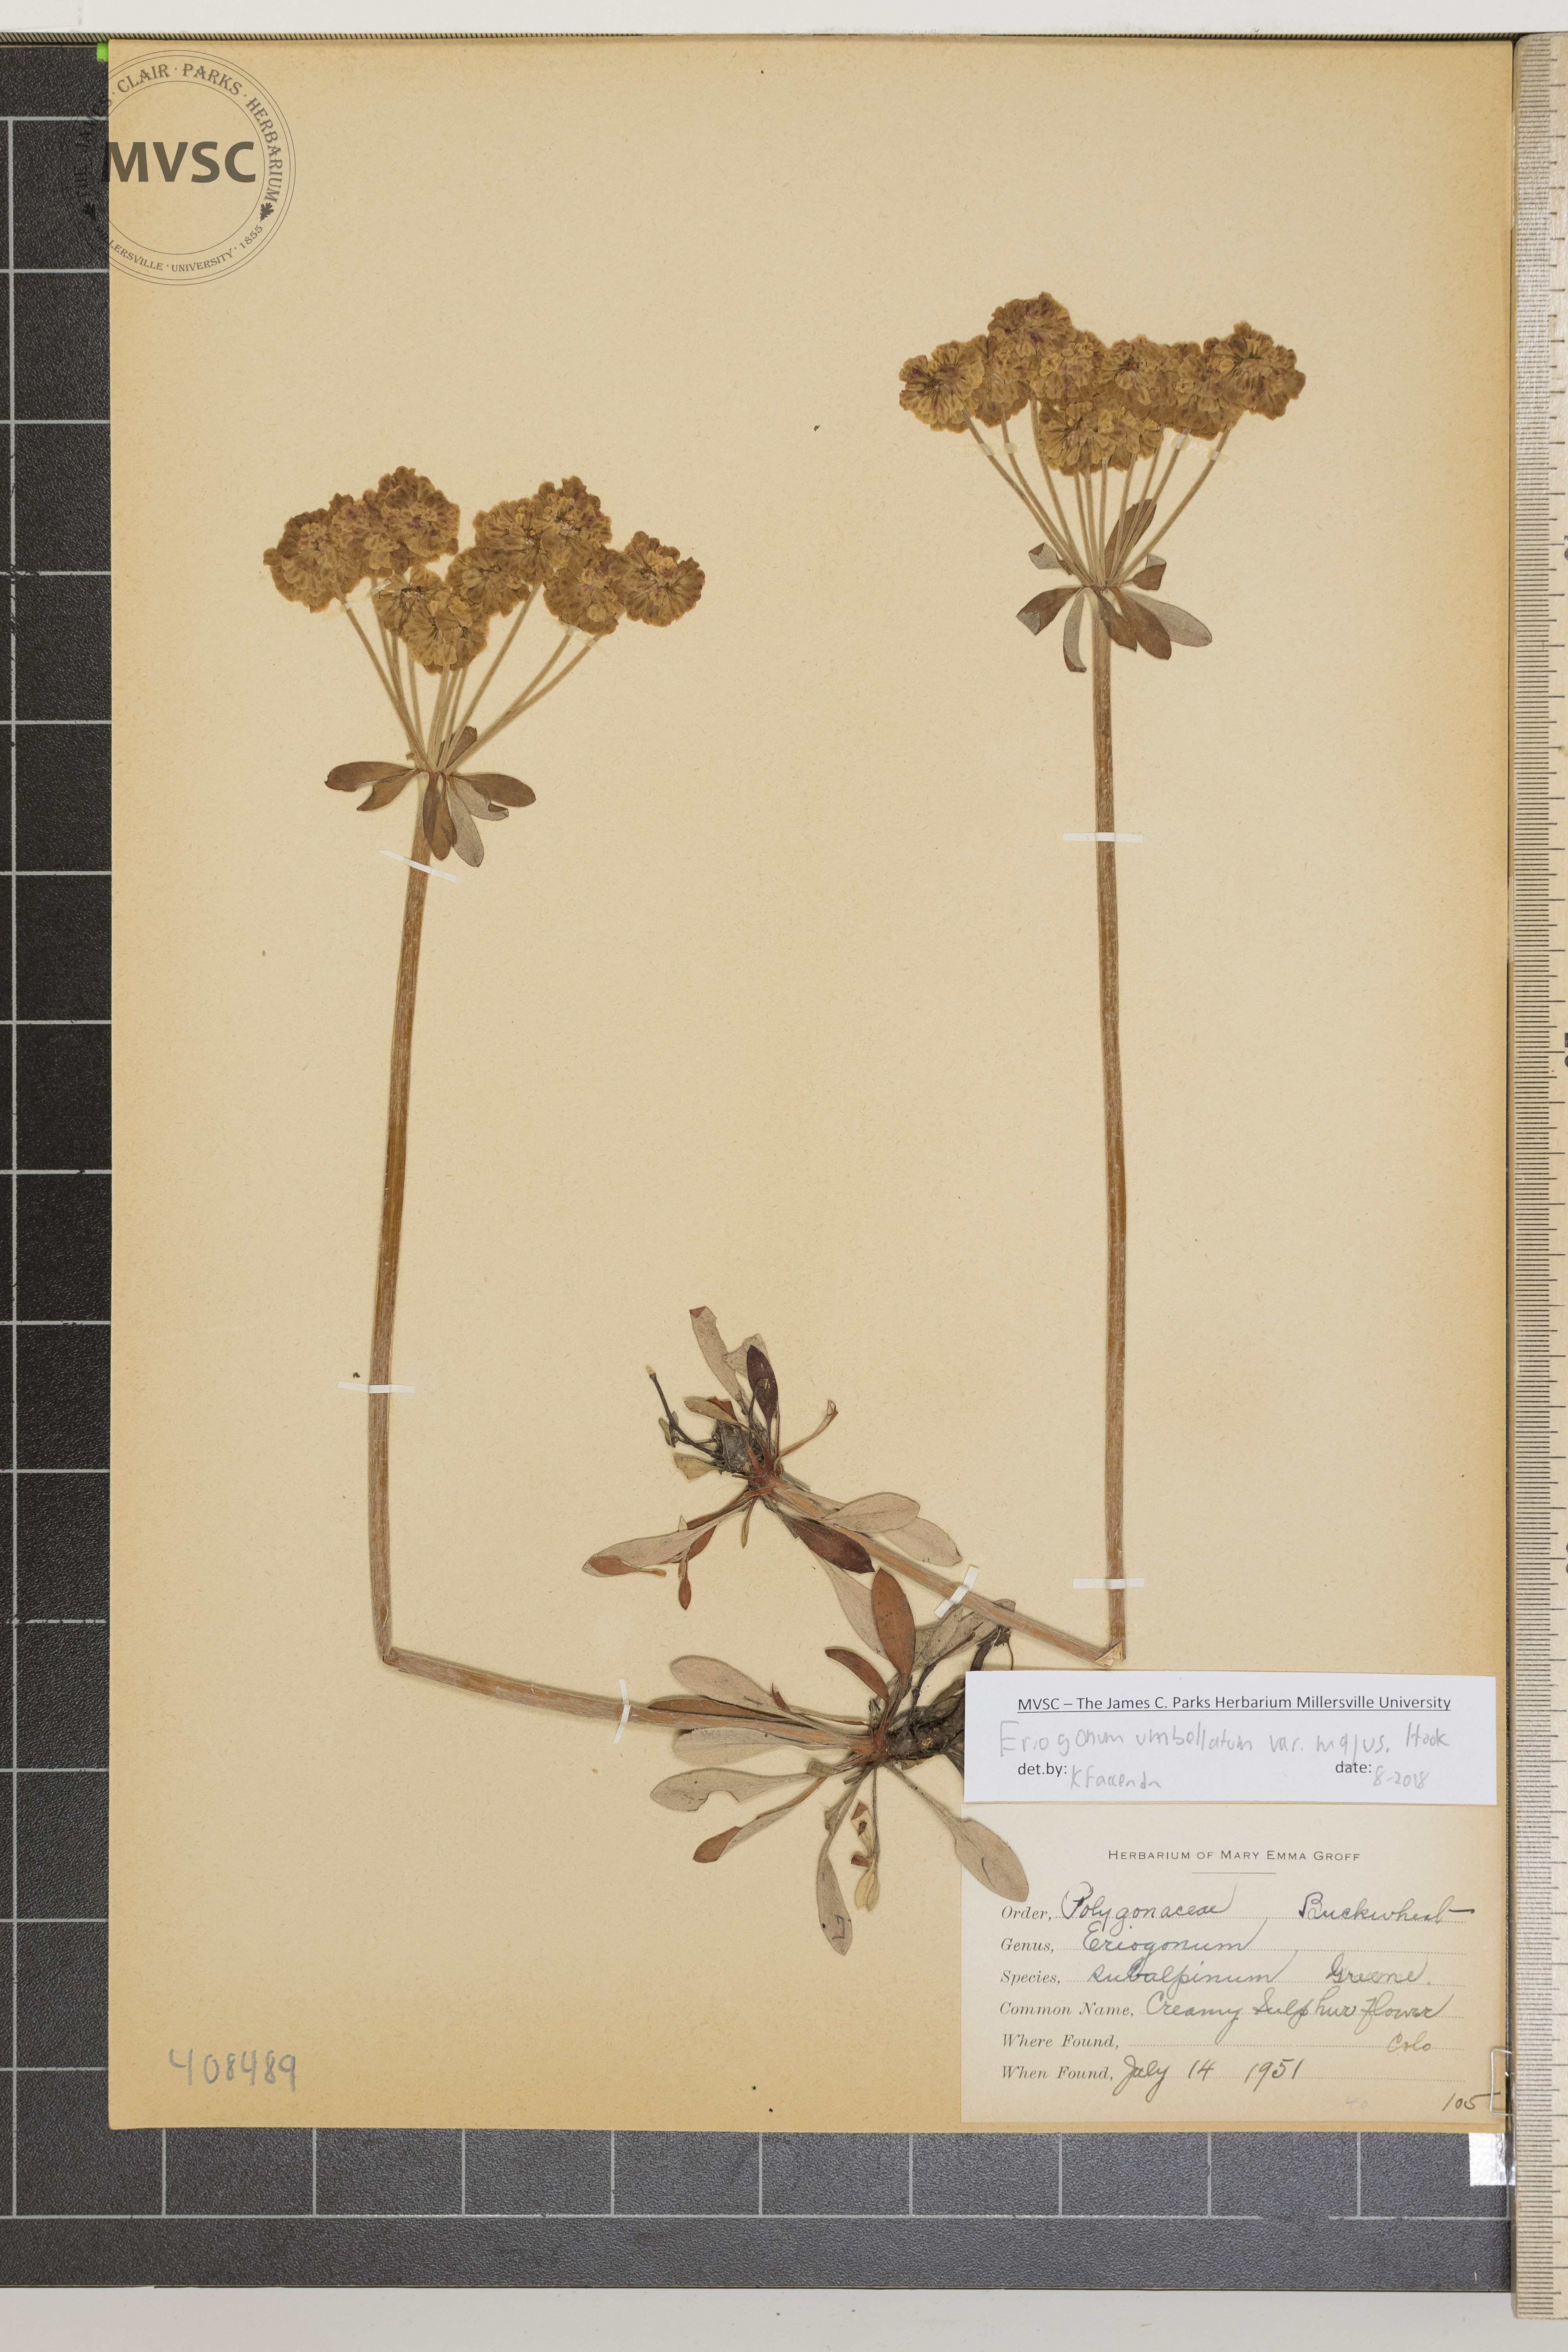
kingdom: Plantae
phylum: Tracheophyta
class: Magnoliopsida
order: Caryophyllales
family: Polygonaceae
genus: Eriogonum
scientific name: Eriogonum umbellatum
